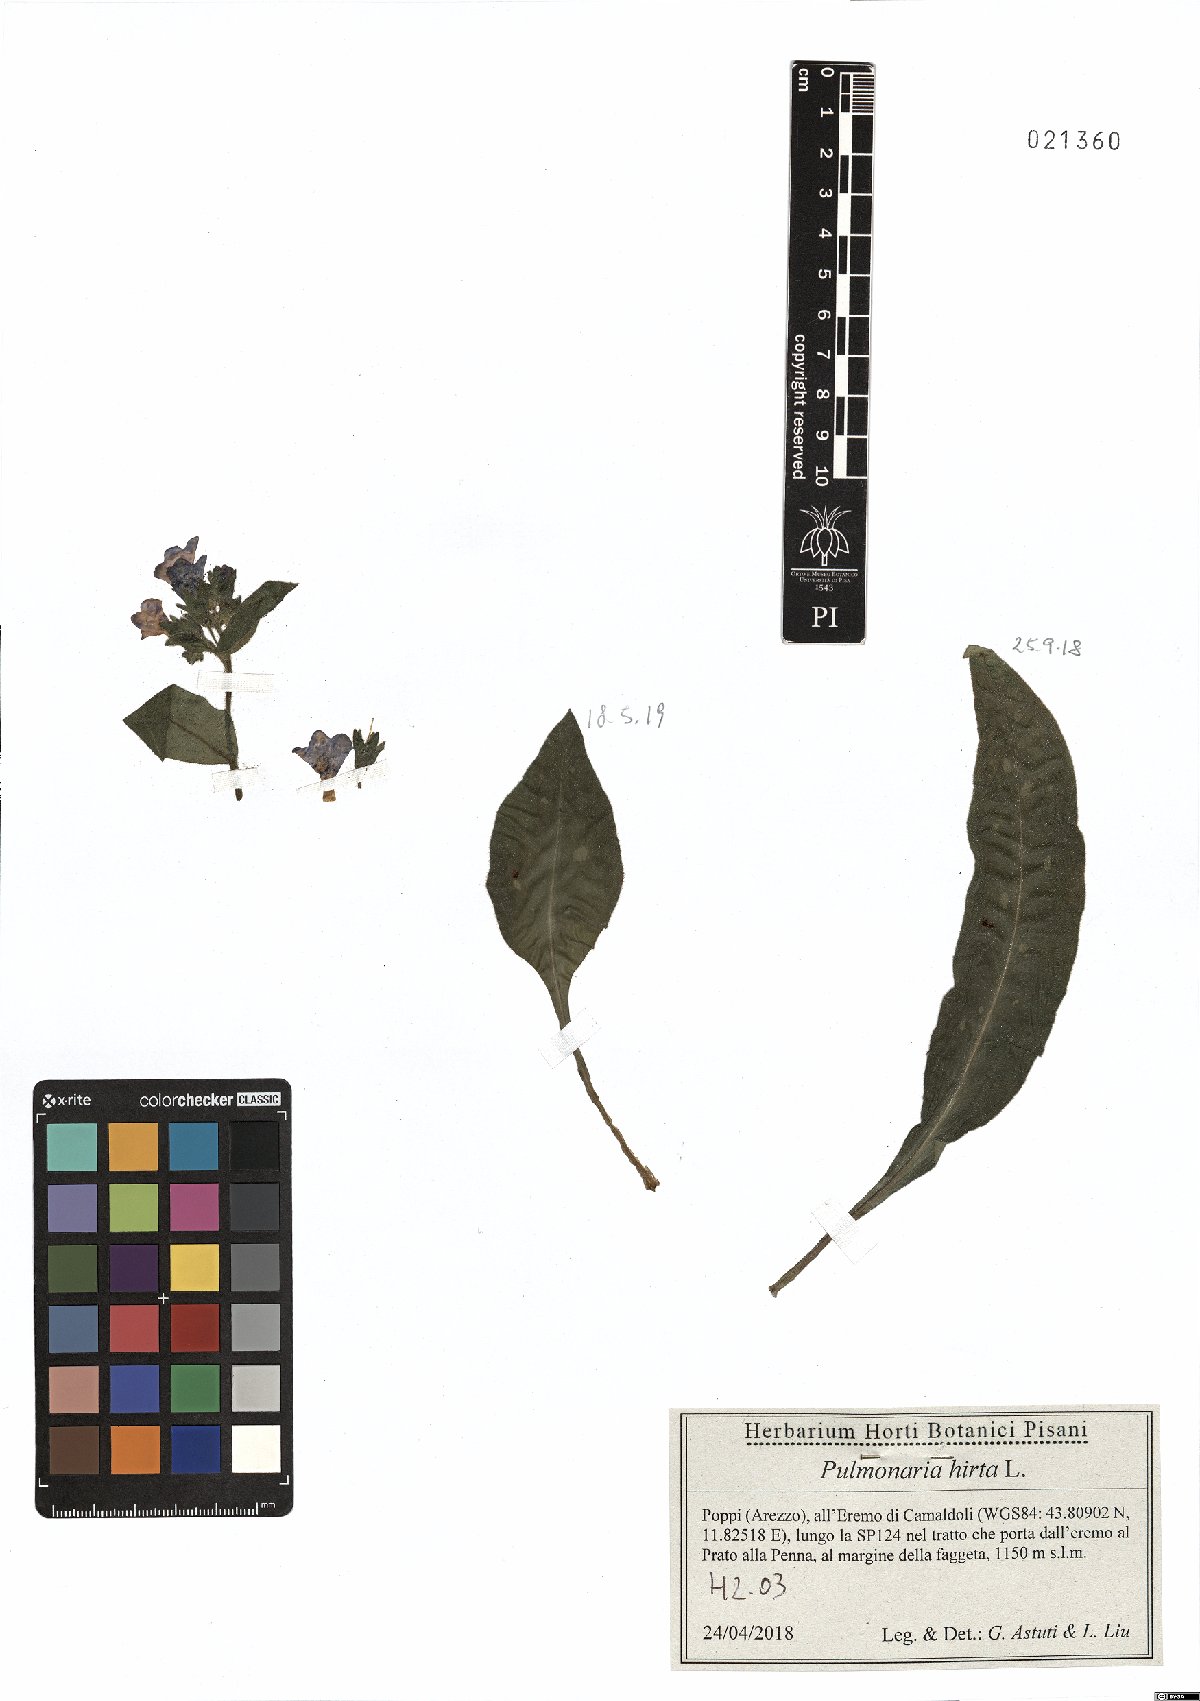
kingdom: Plantae
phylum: Tracheophyta
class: Magnoliopsida
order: Boraginales
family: Boraginaceae
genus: Pulmonaria
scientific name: Pulmonaria hirta
